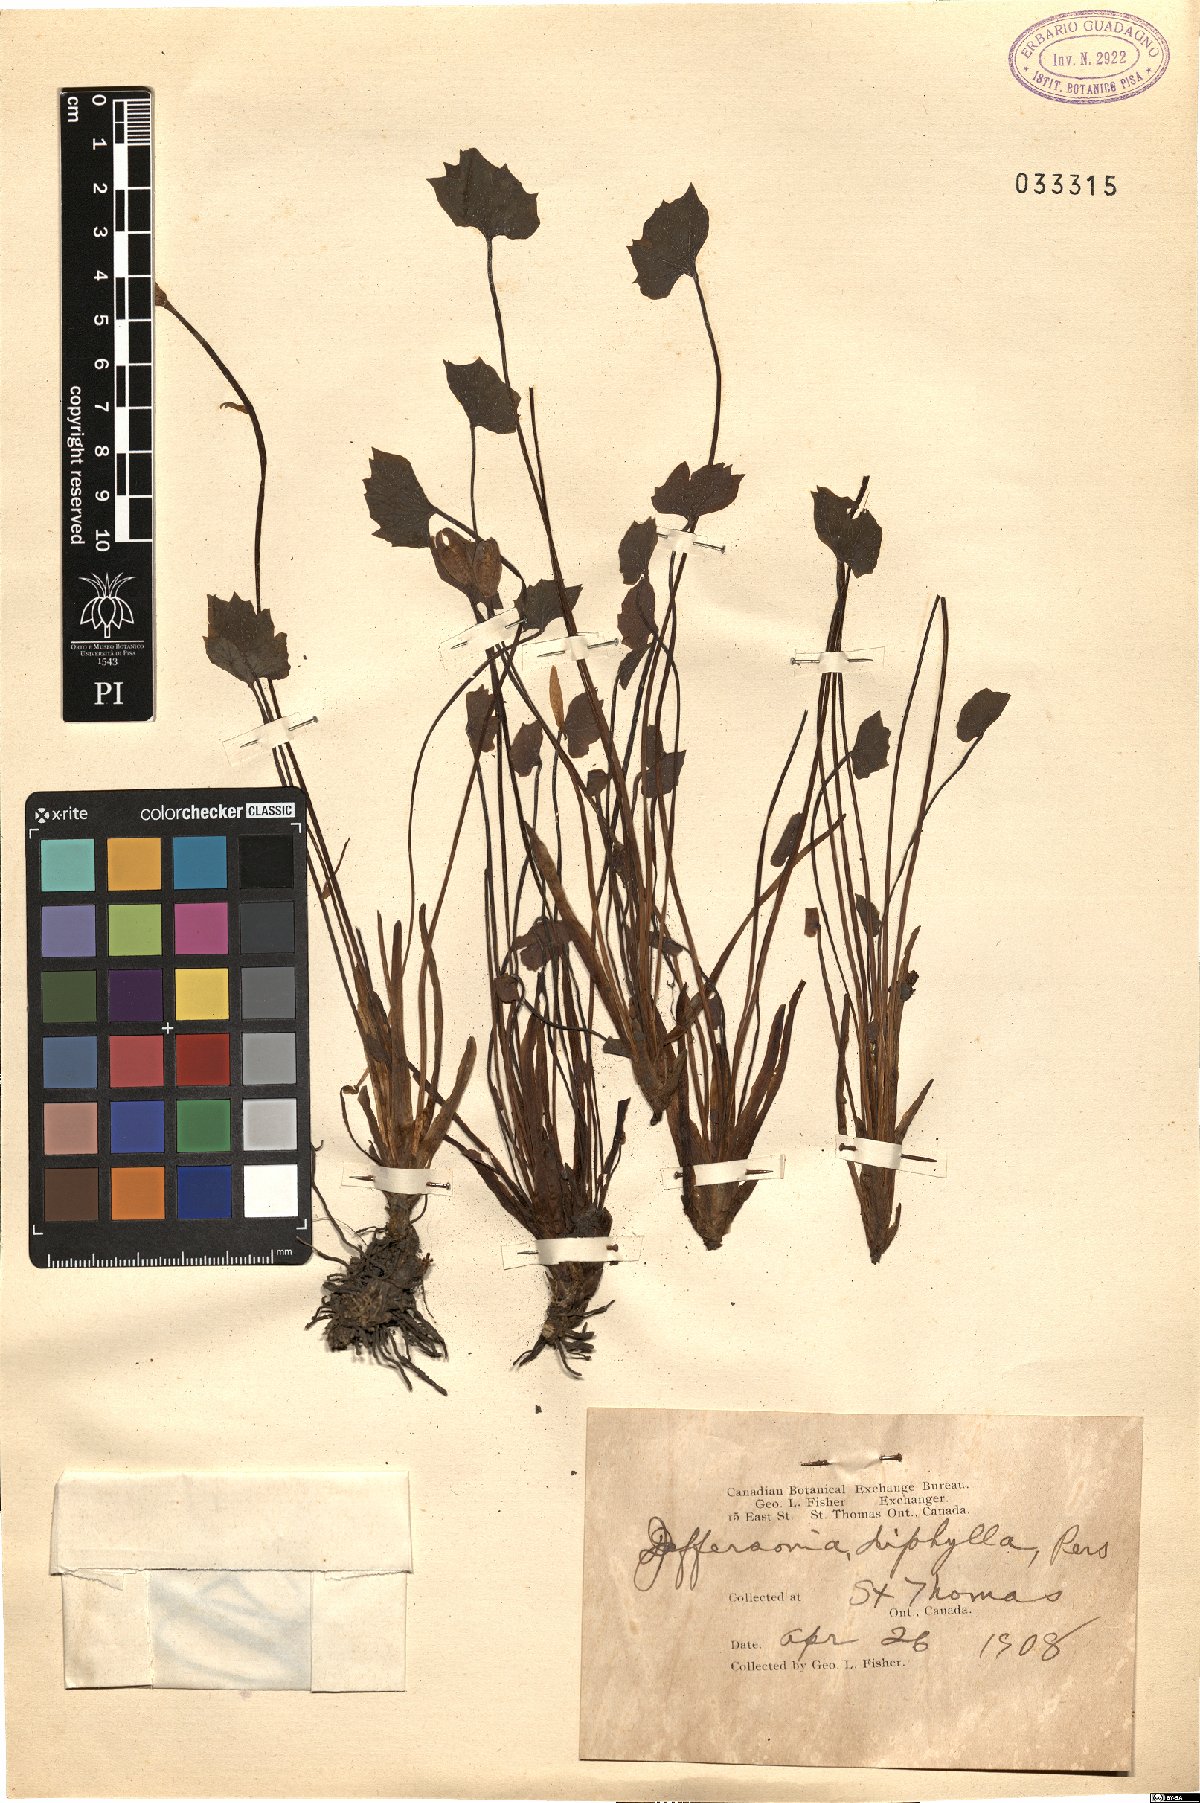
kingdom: Plantae
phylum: Tracheophyta
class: Magnoliopsida
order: Ranunculales
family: Berberidaceae
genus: Jeffersonia
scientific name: Jeffersonia diphylla
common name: Rheumatism-root
